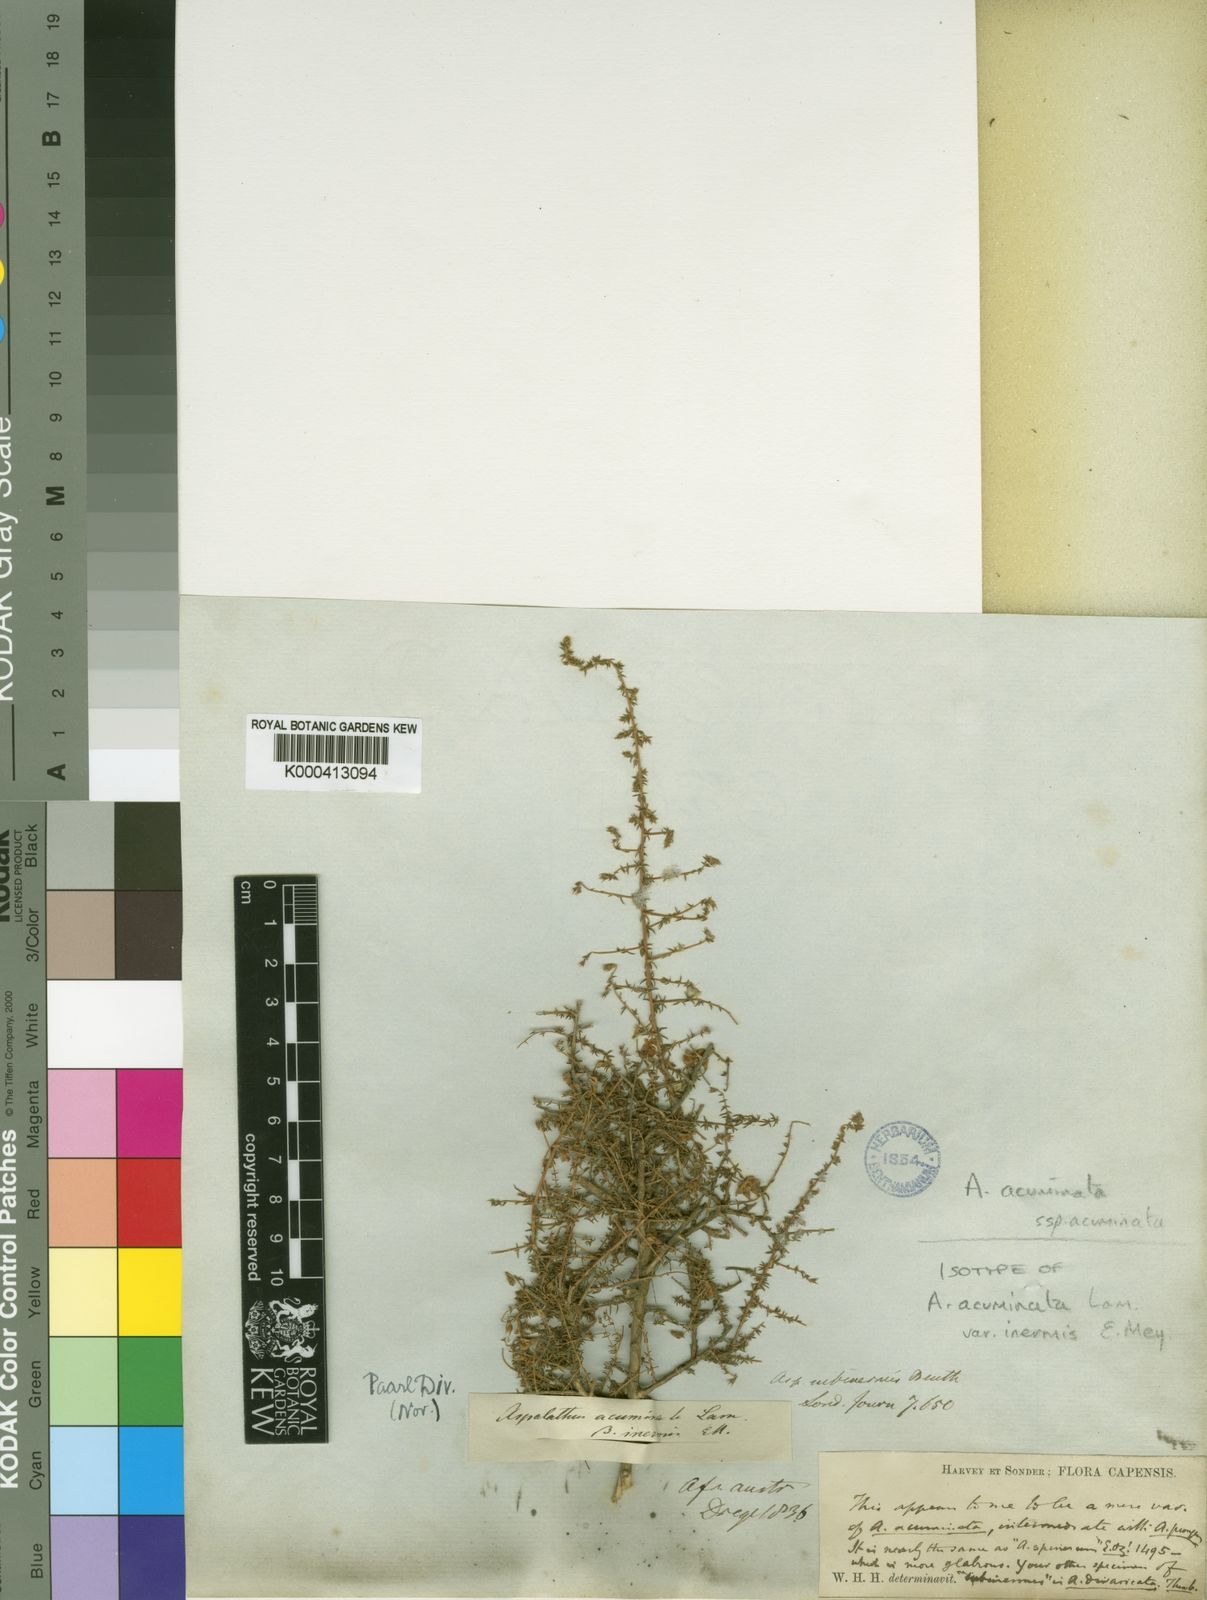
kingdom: Plantae
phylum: Tracheophyta
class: Magnoliopsida
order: Fabales
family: Fabaceae
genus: Aspalathus
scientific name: Aspalathus acuminata
